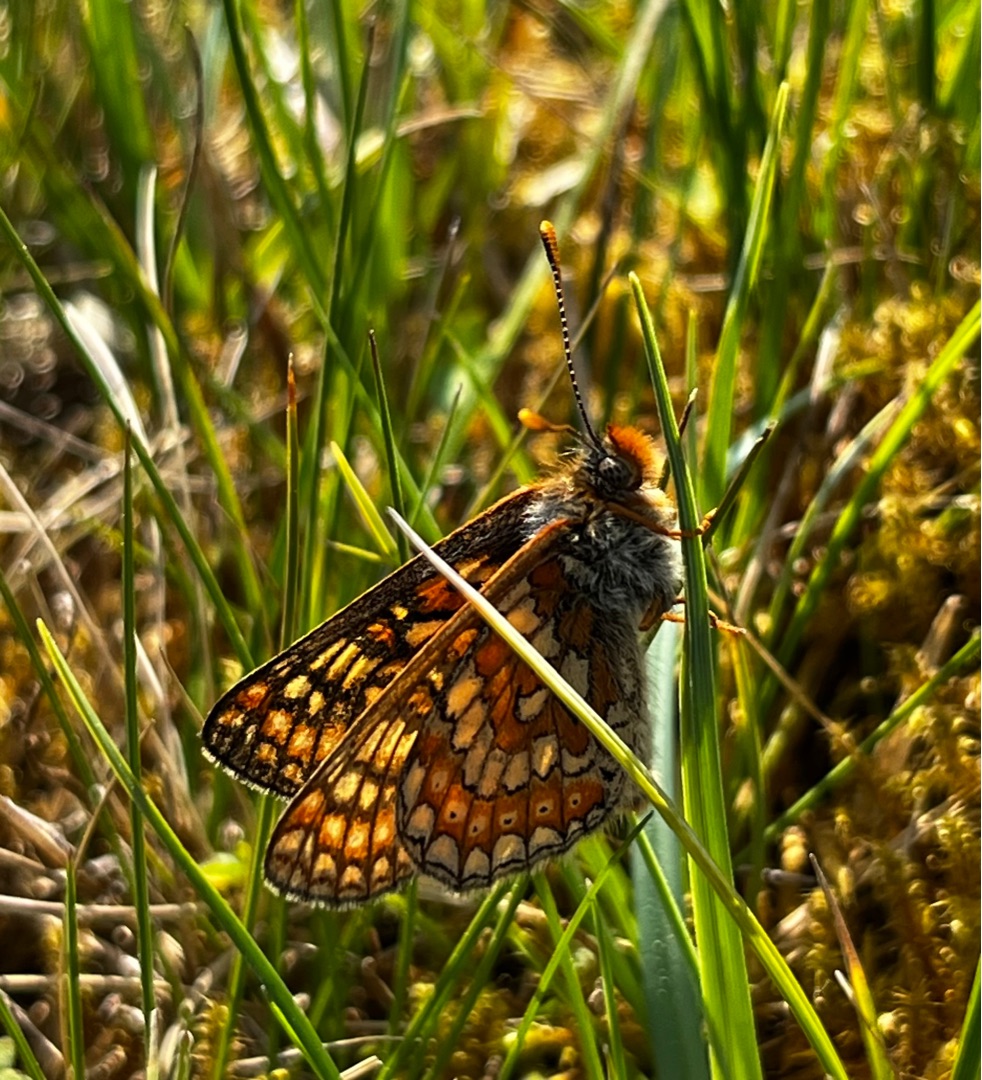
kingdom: Animalia
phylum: Arthropoda
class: Insecta
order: Lepidoptera
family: Nymphalidae
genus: Euphydryas
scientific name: Euphydryas aurinia
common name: Hedepletvinge
